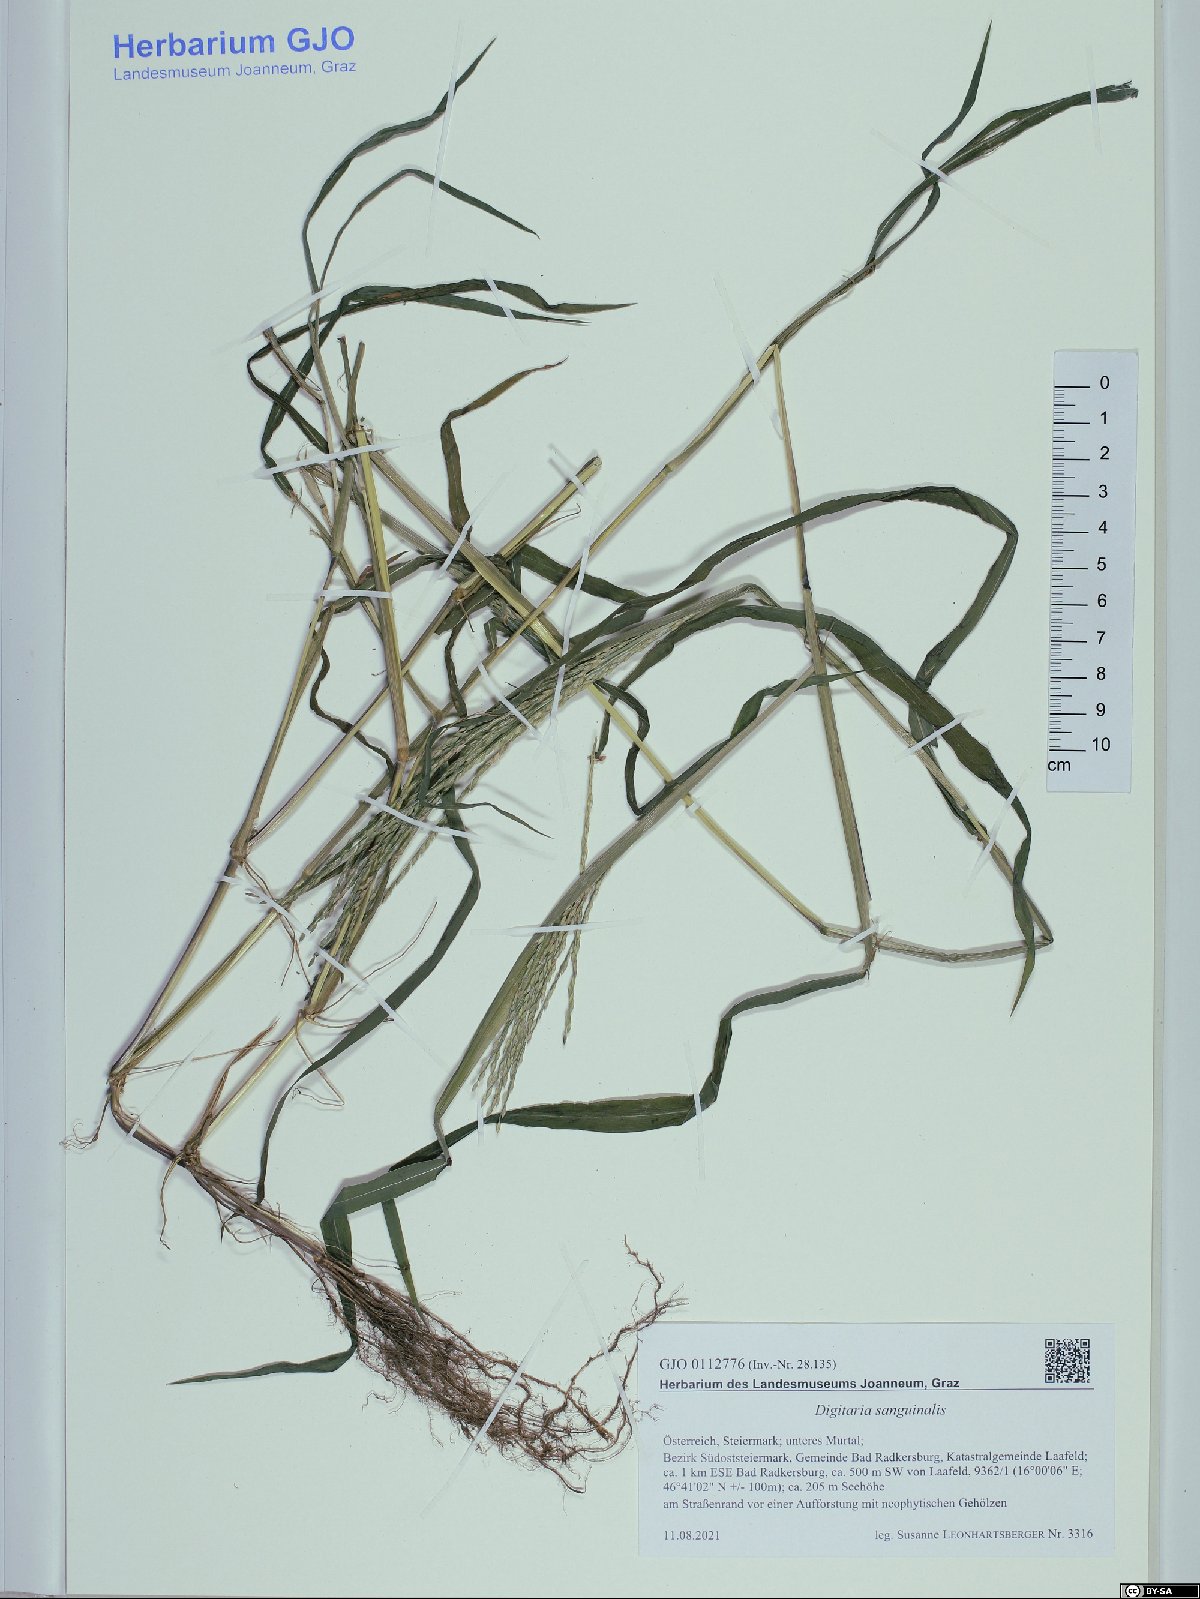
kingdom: Plantae
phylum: Tracheophyta
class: Liliopsida
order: Poales
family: Poaceae
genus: Digitaria
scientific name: Digitaria sanguinalis
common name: Hairy crabgrass
